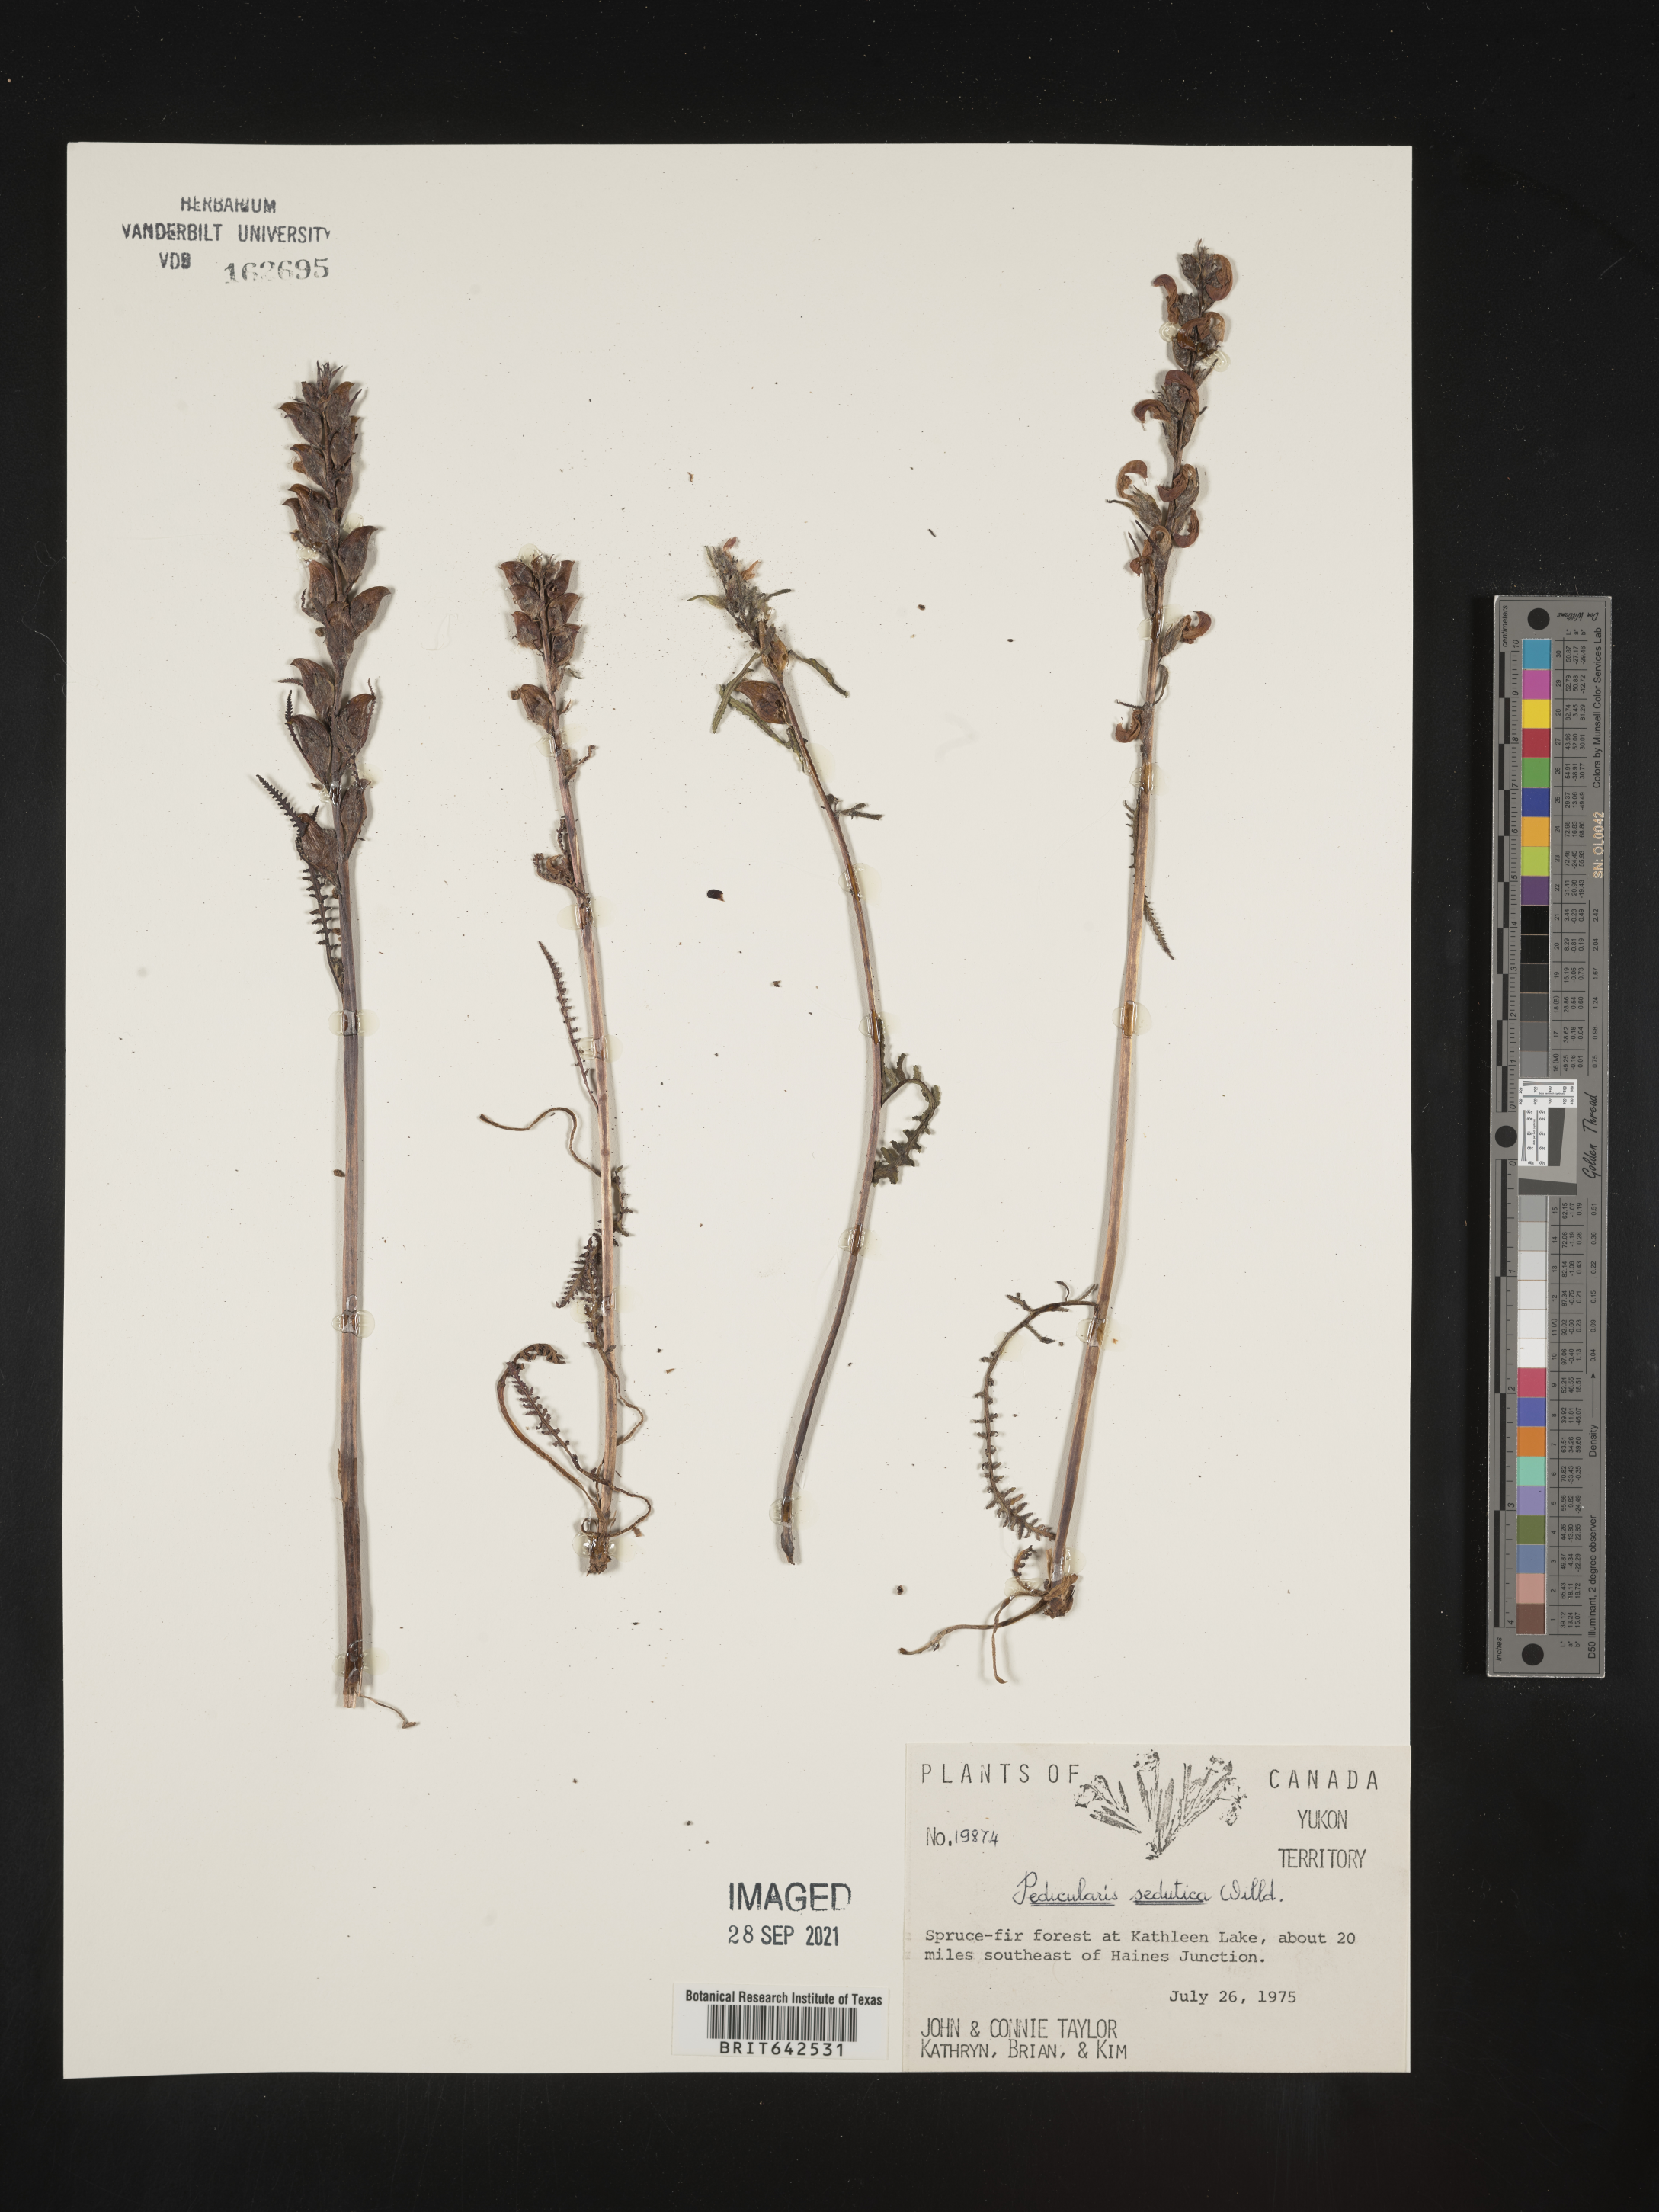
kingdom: Plantae
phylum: Tracheophyta
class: Magnoliopsida
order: Lamiales
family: Orobanchaceae
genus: Pedicularis
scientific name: Pedicularis
